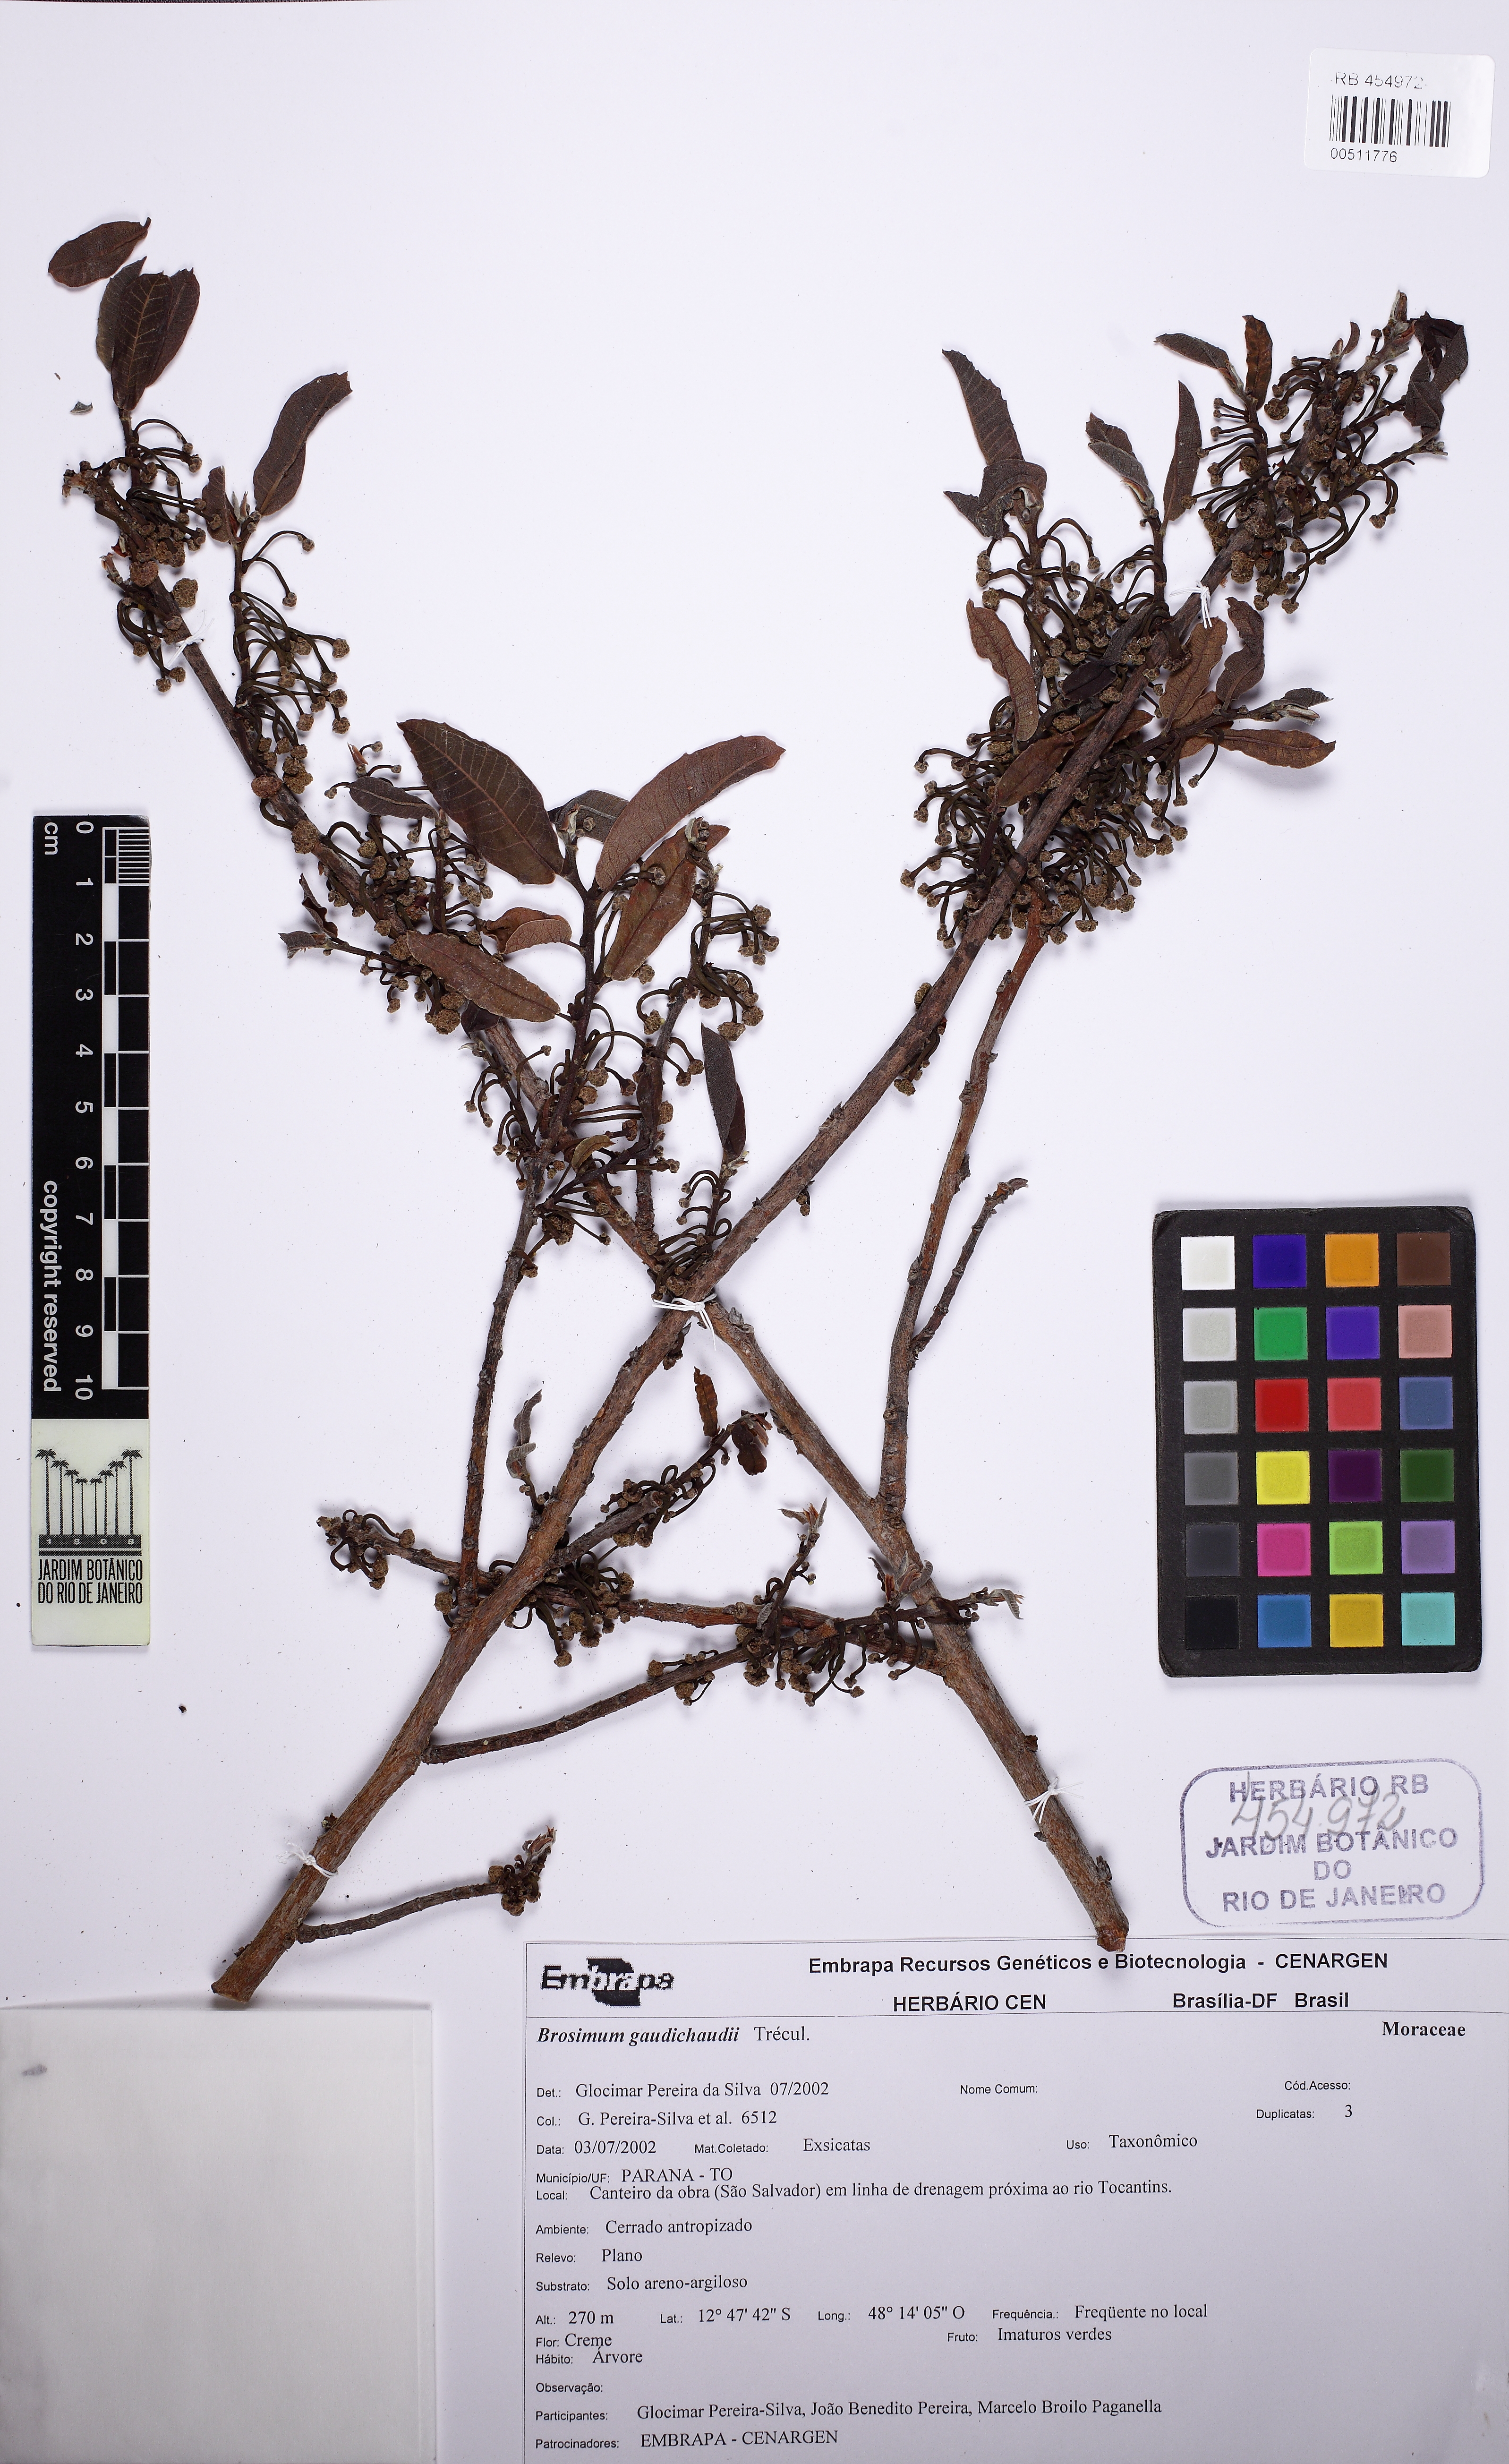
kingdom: Plantae
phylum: Tracheophyta
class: Magnoliopsida
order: Rosales
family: Moraceae
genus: Brosimum
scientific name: Brosimum gaudichaudii
